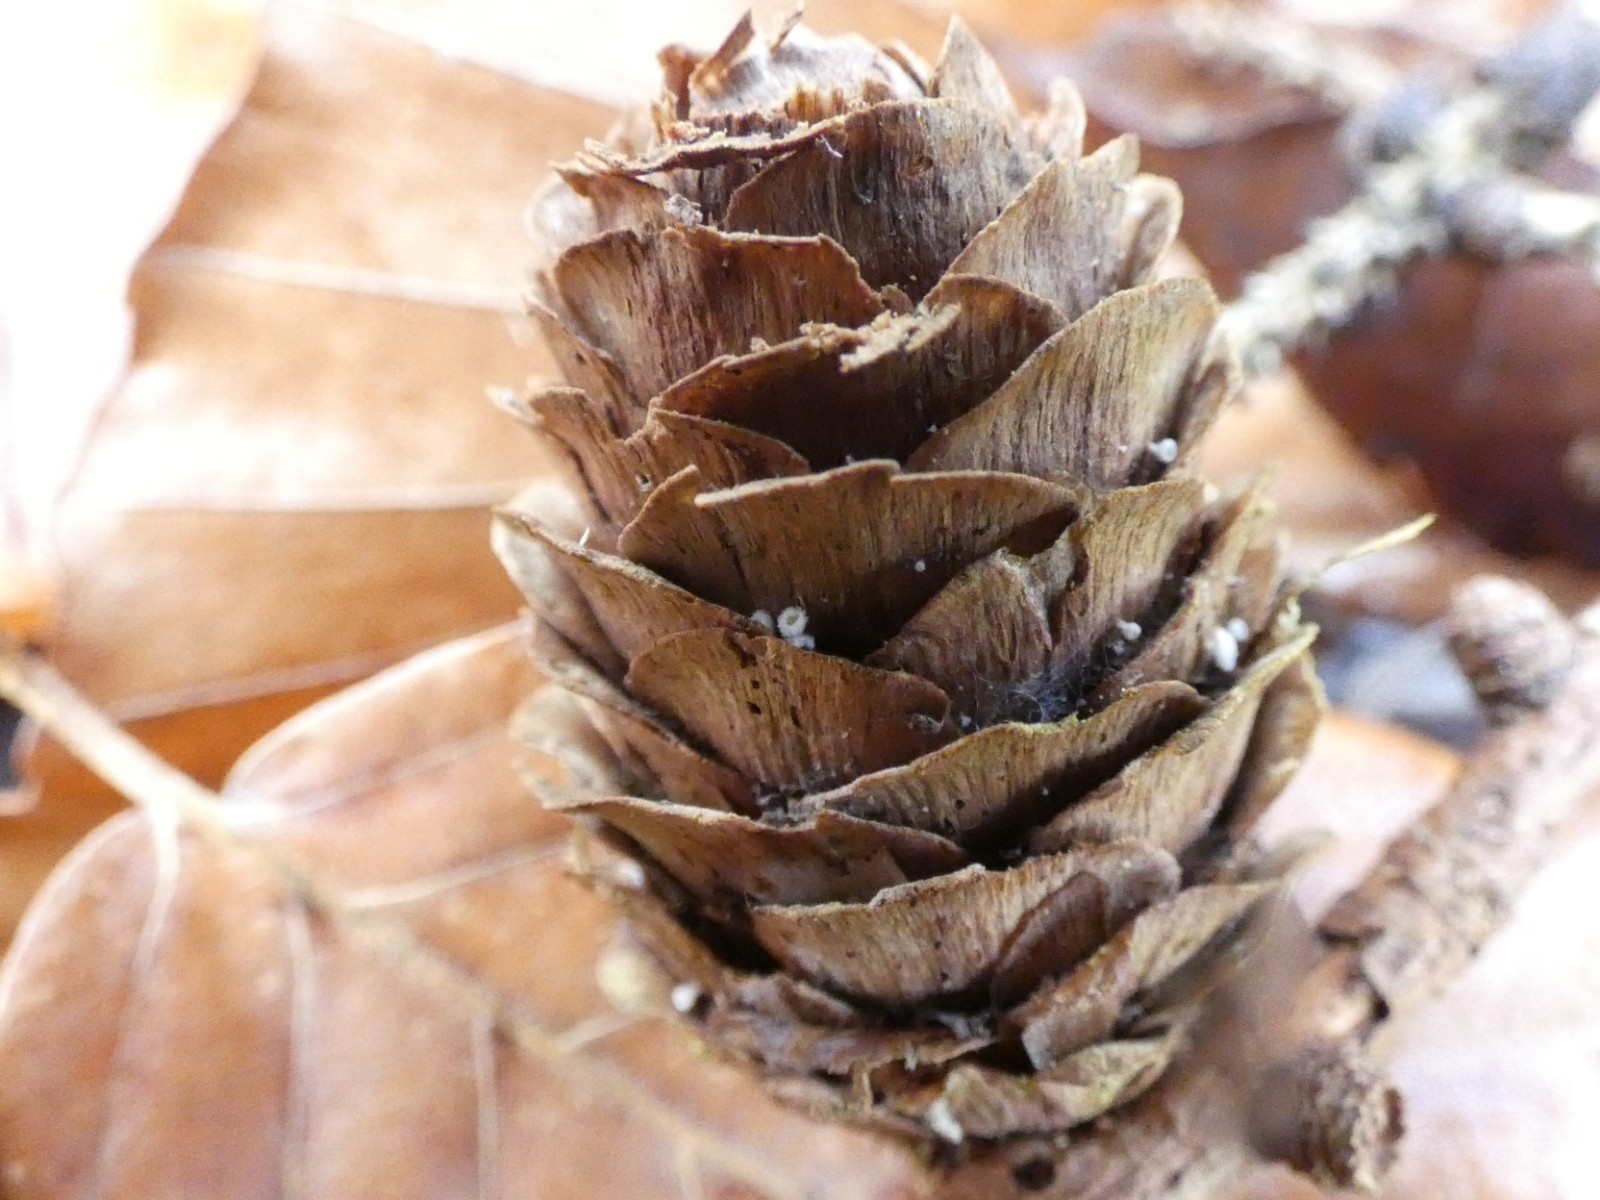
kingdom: Fungi
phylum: Ascomycota
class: Leotiomycetes
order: Helotiales
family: Lachnaceae
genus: Lachnum
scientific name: Lachnum virgineum
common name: jomfru-frynseskive
